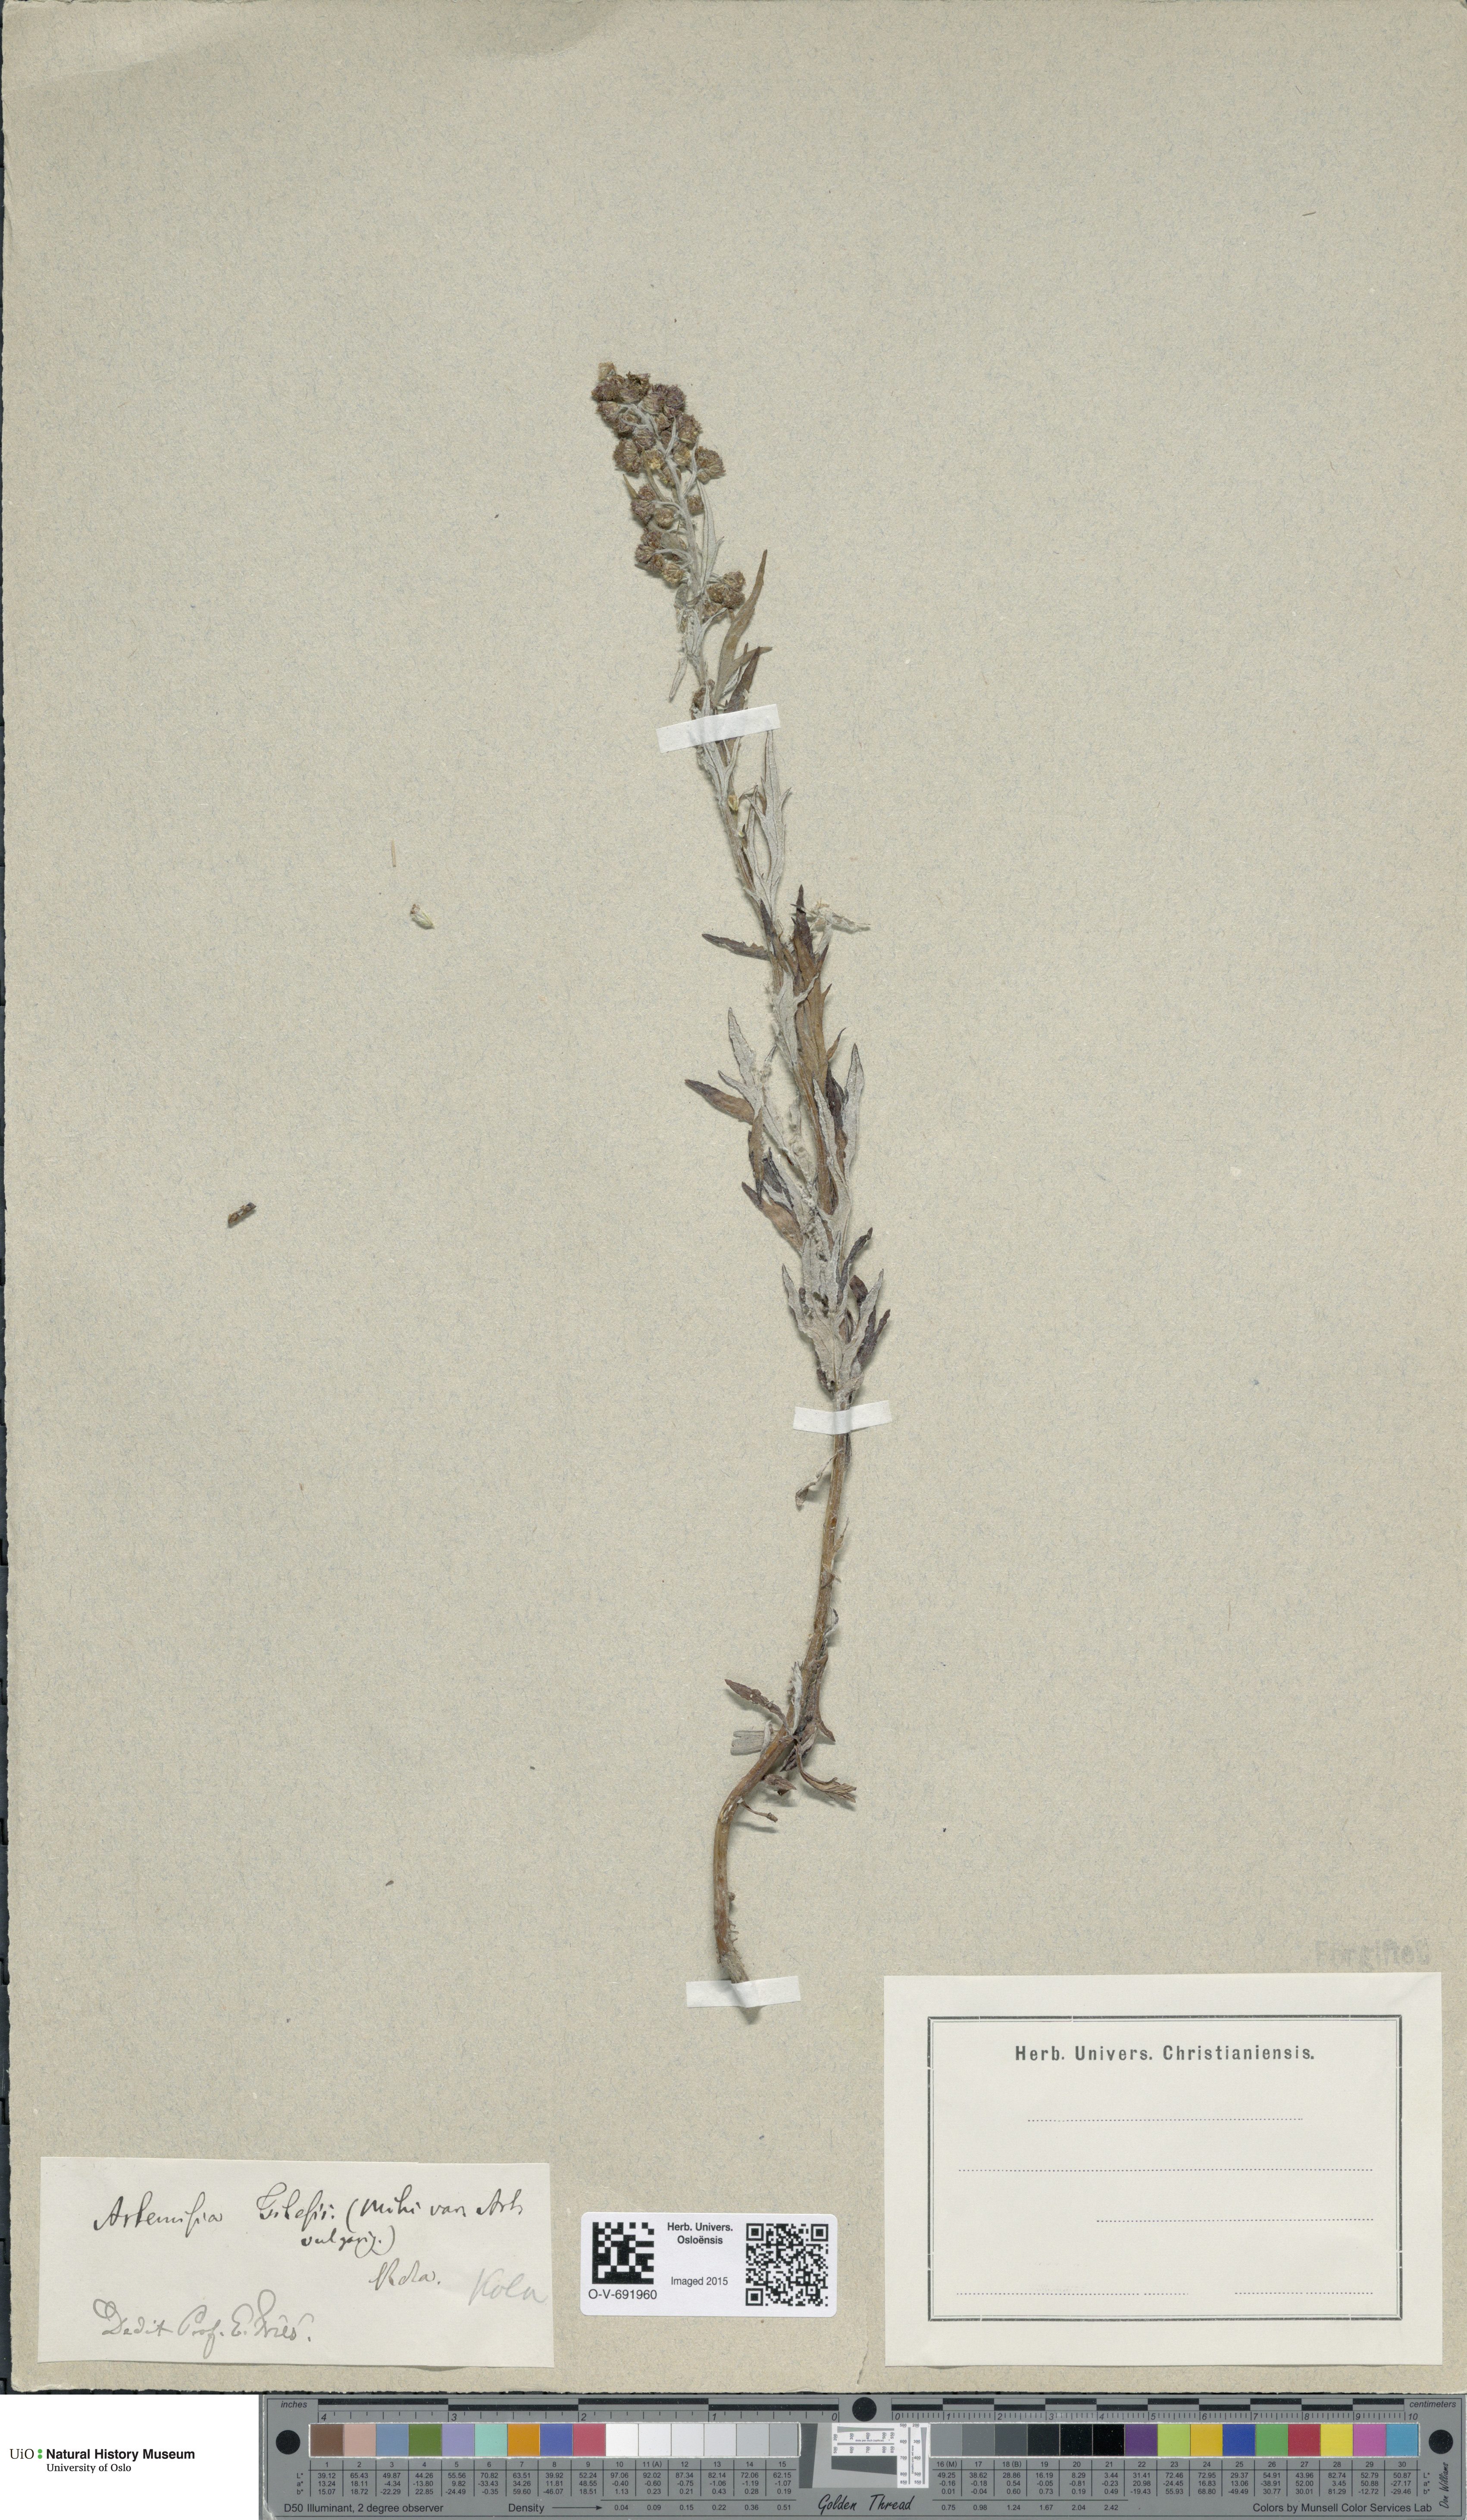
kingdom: Plantae
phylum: Tracheophyta
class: Magnoliopsida
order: Asterales
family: Asteraceae
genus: Artemisia
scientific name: Artemisia tilesii
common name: Aleutian mugwort
